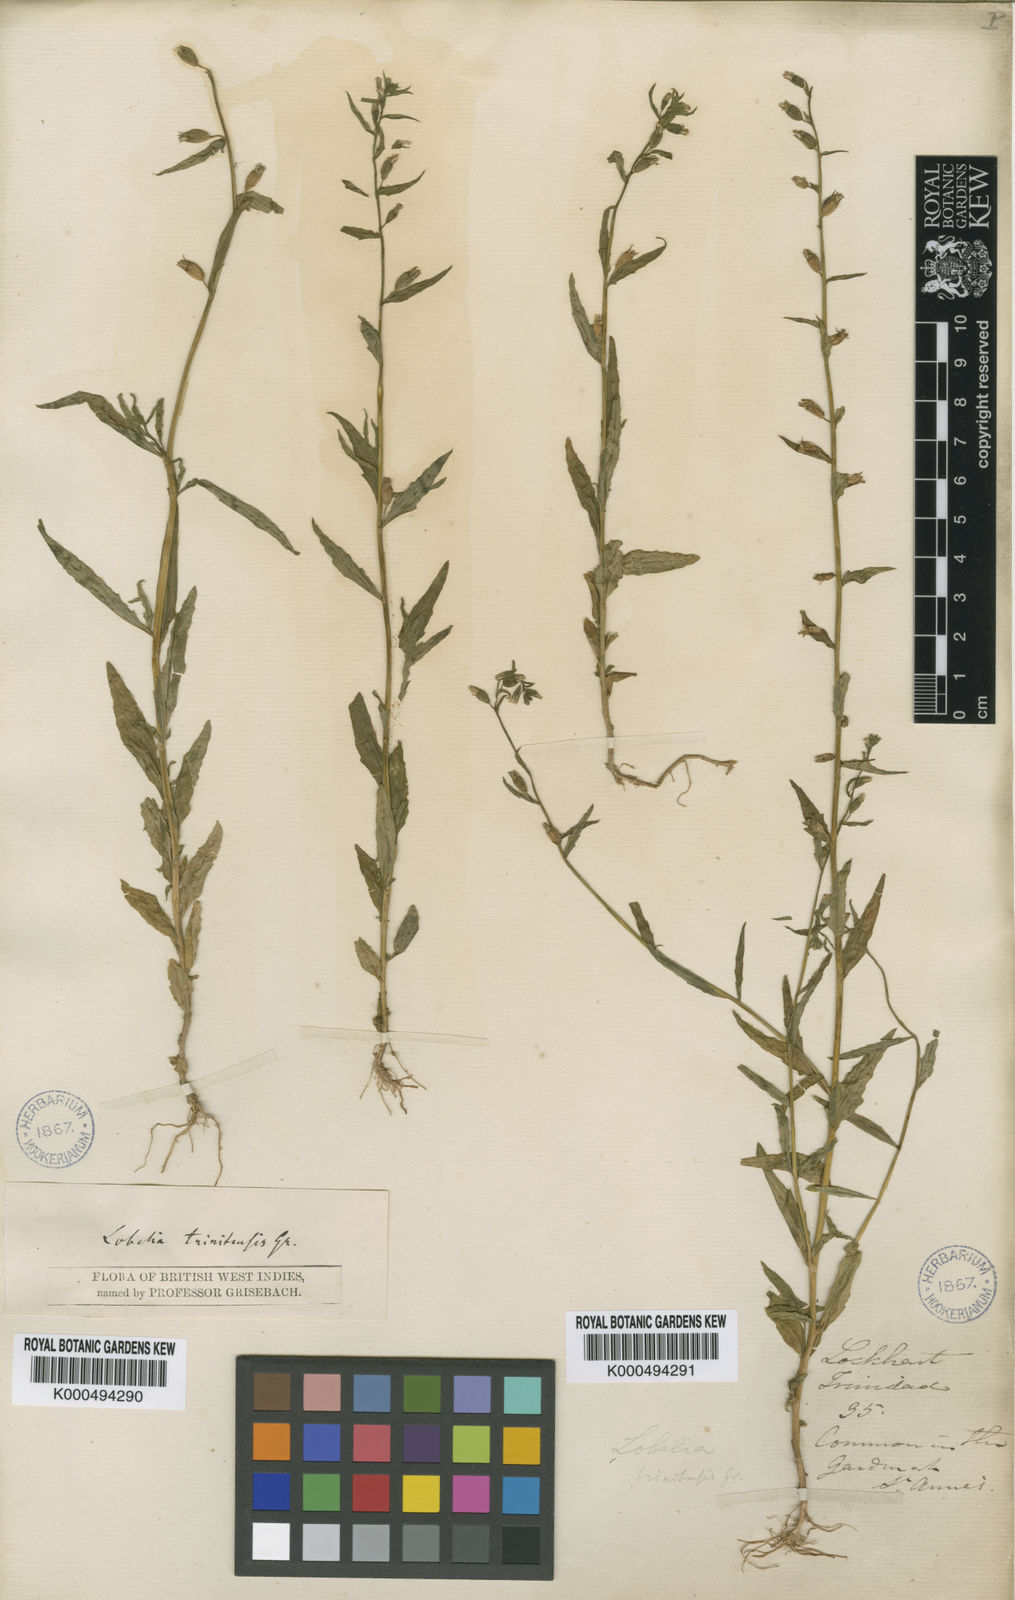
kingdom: Plantae
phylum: Tracheophyta
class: Magnoliopsida
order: Asterales
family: Campanulaceae
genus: Lobelia
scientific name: Lobelia fastigiata
